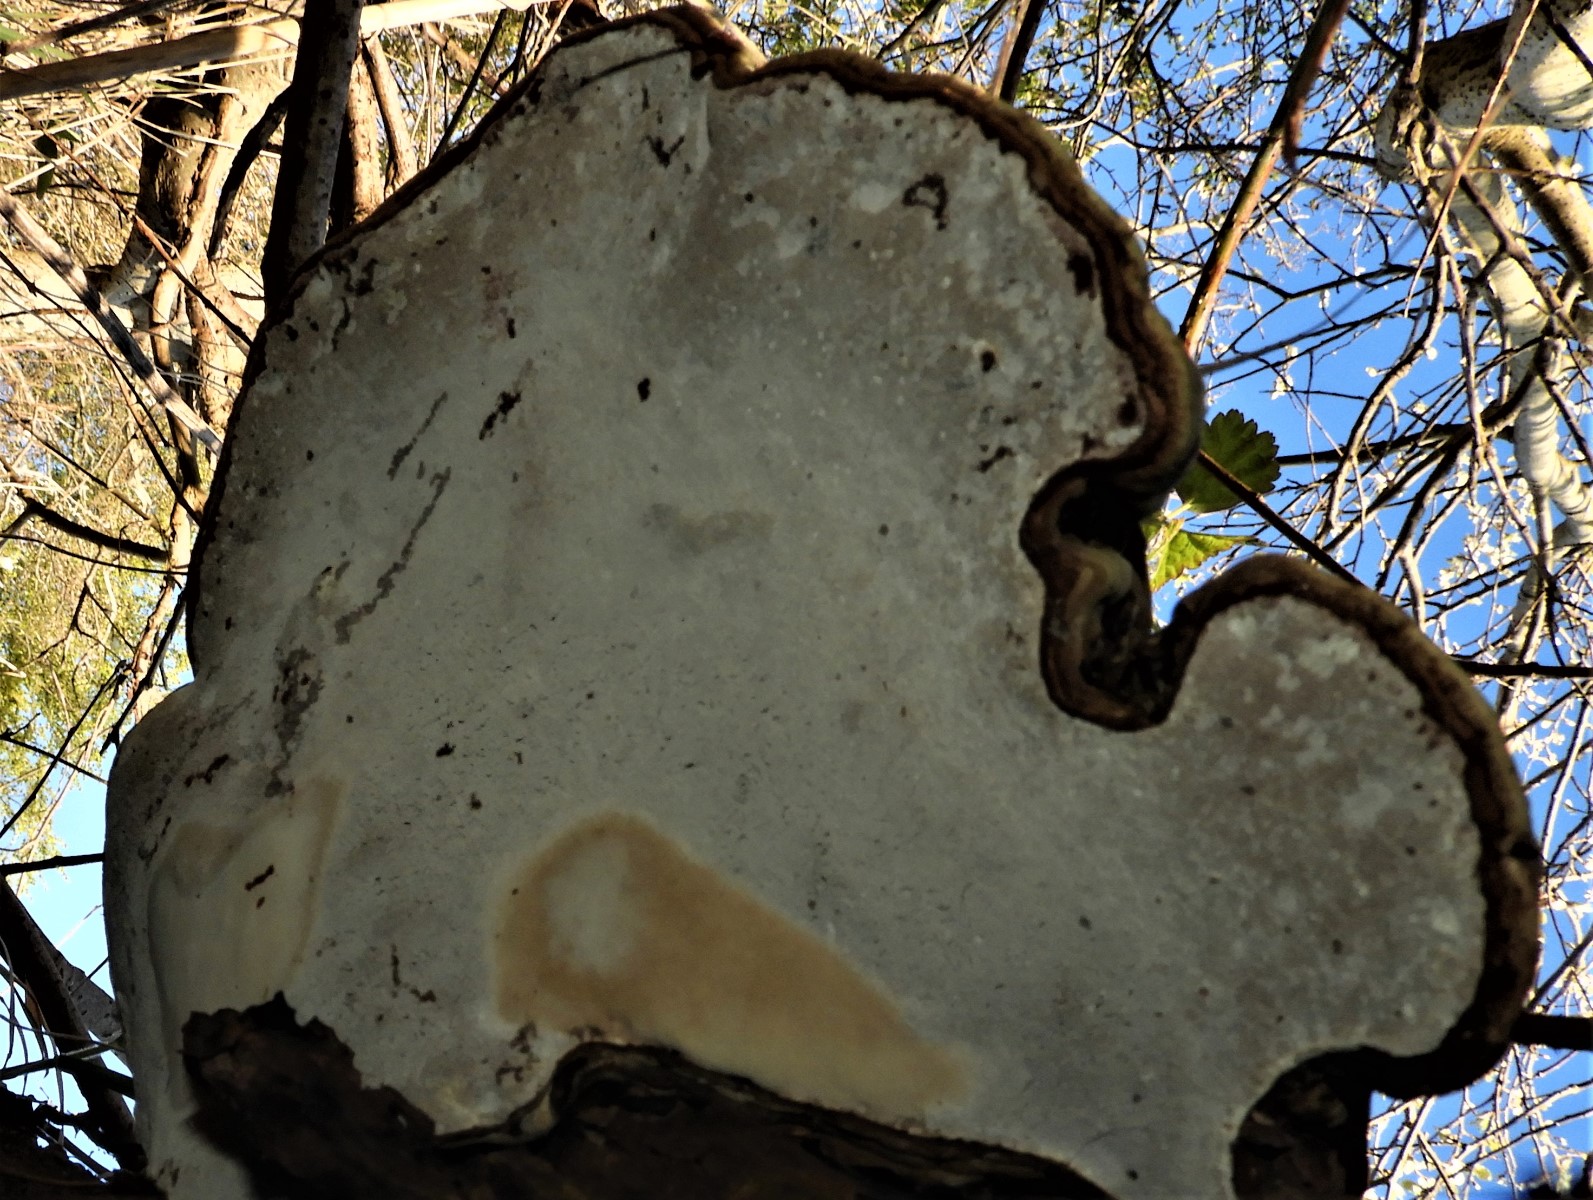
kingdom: Fungi
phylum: Basidiomycota
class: Agaricomycetes
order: Polyporales
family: Polyporaceae
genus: Ganoderma
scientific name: Ganoderma applanatum
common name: flad lakporesvamp
